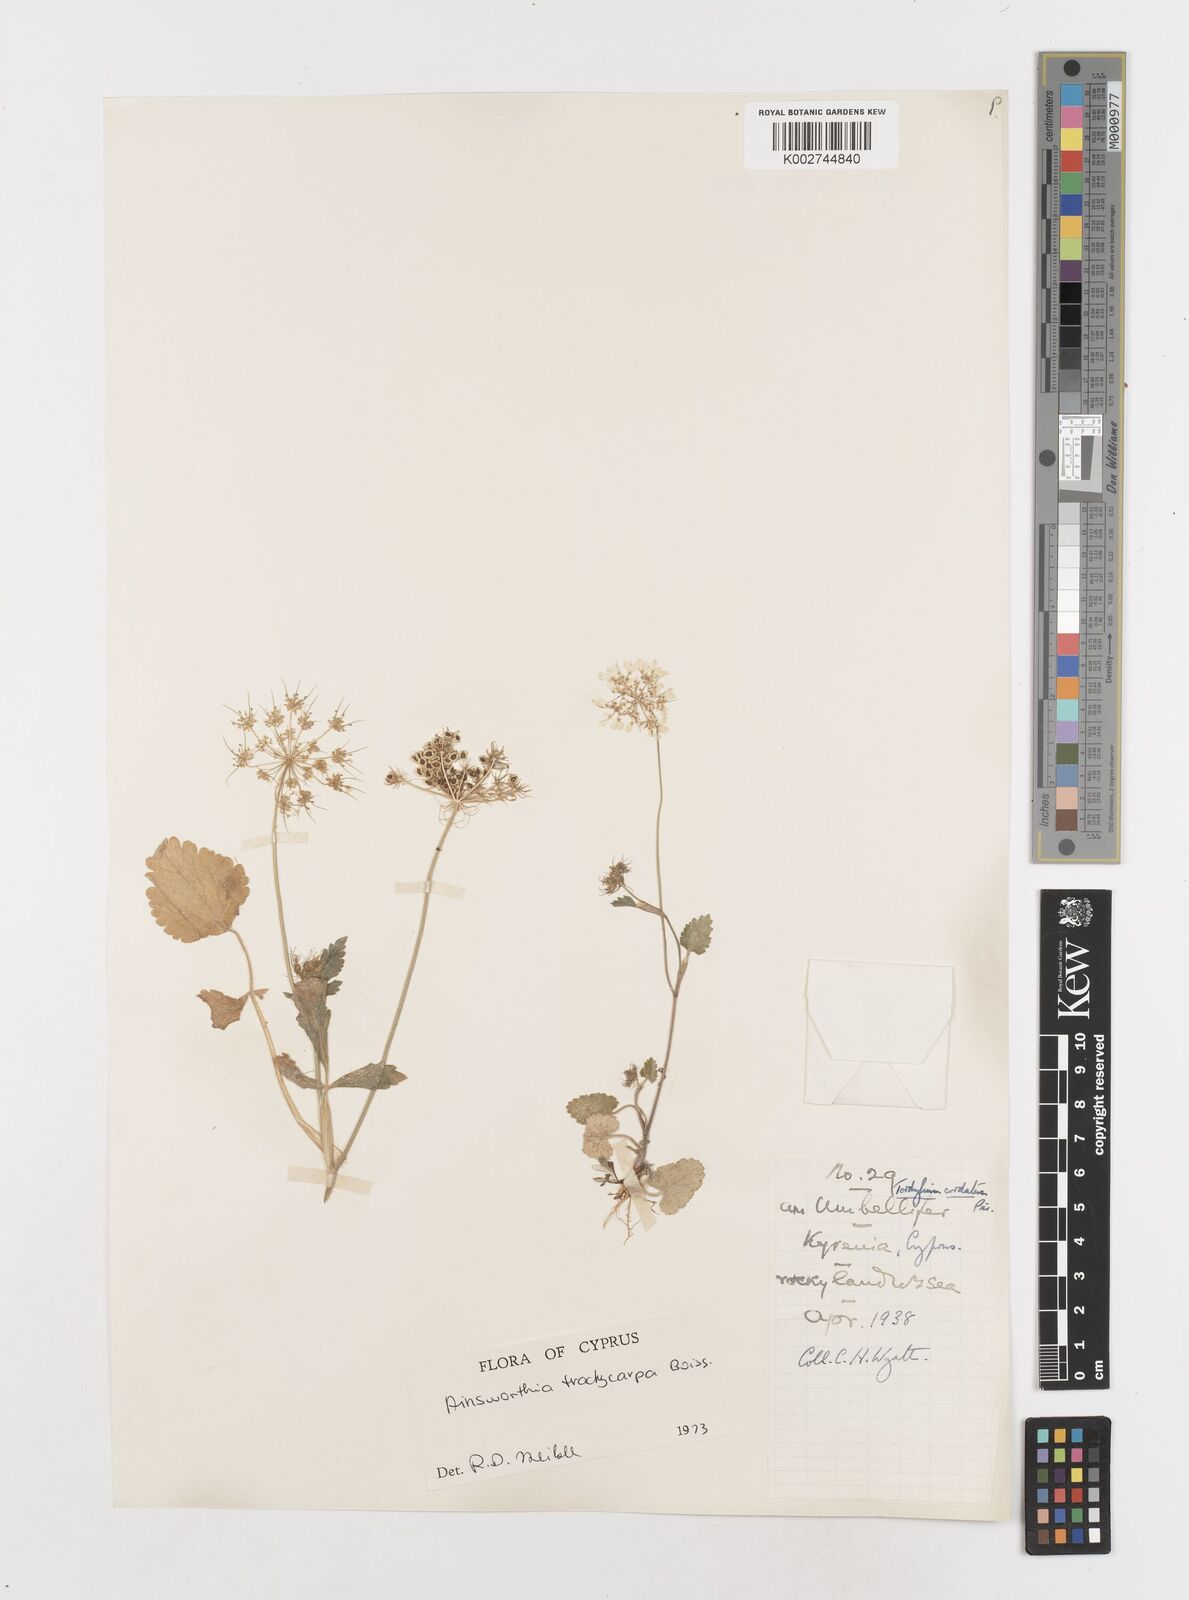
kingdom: Plantae
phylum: Tracheophyta
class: Magnoliopsida
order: Apiales
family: Apiaceae
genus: Ainsworthia
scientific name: Ainsworthia trachycarpa
